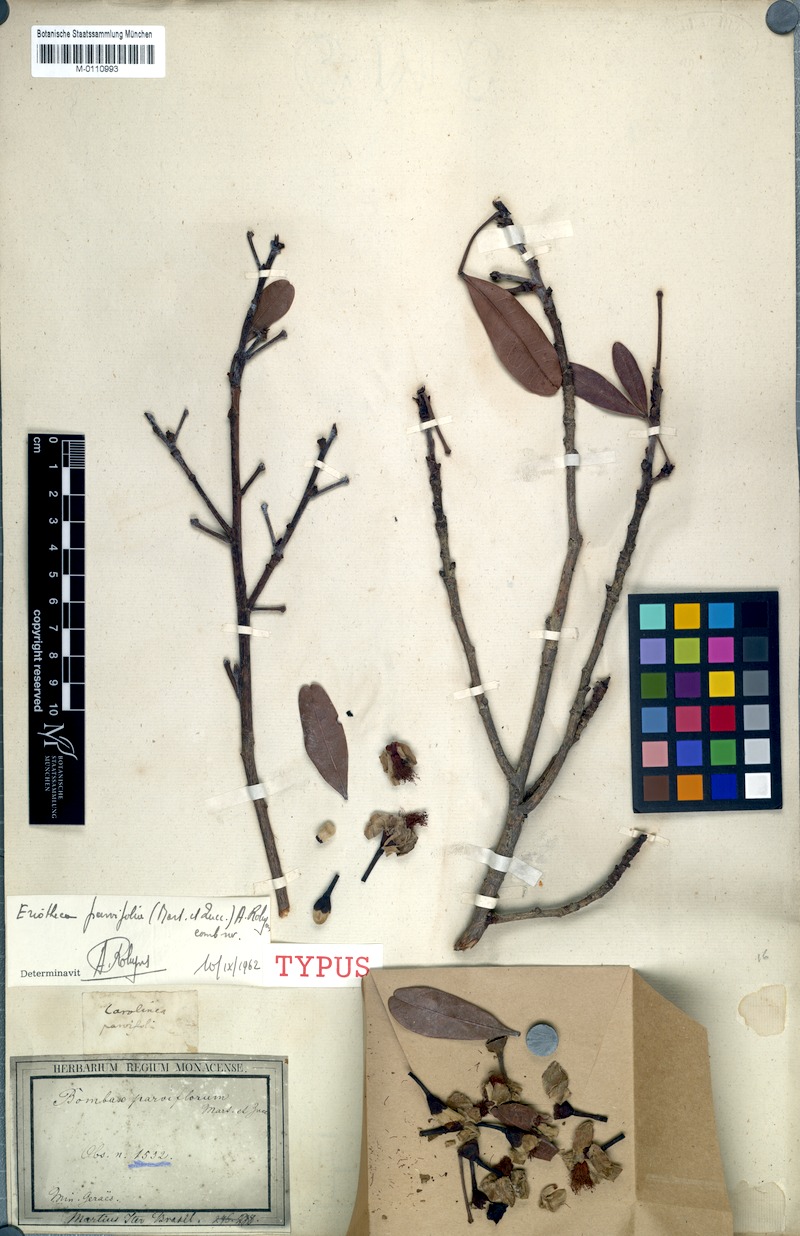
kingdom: Plantae
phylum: Tracheophyta
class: Magnoliopsida
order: Malvales
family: Malvaceae
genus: Eriotheca
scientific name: Eriotheca parvifolia
